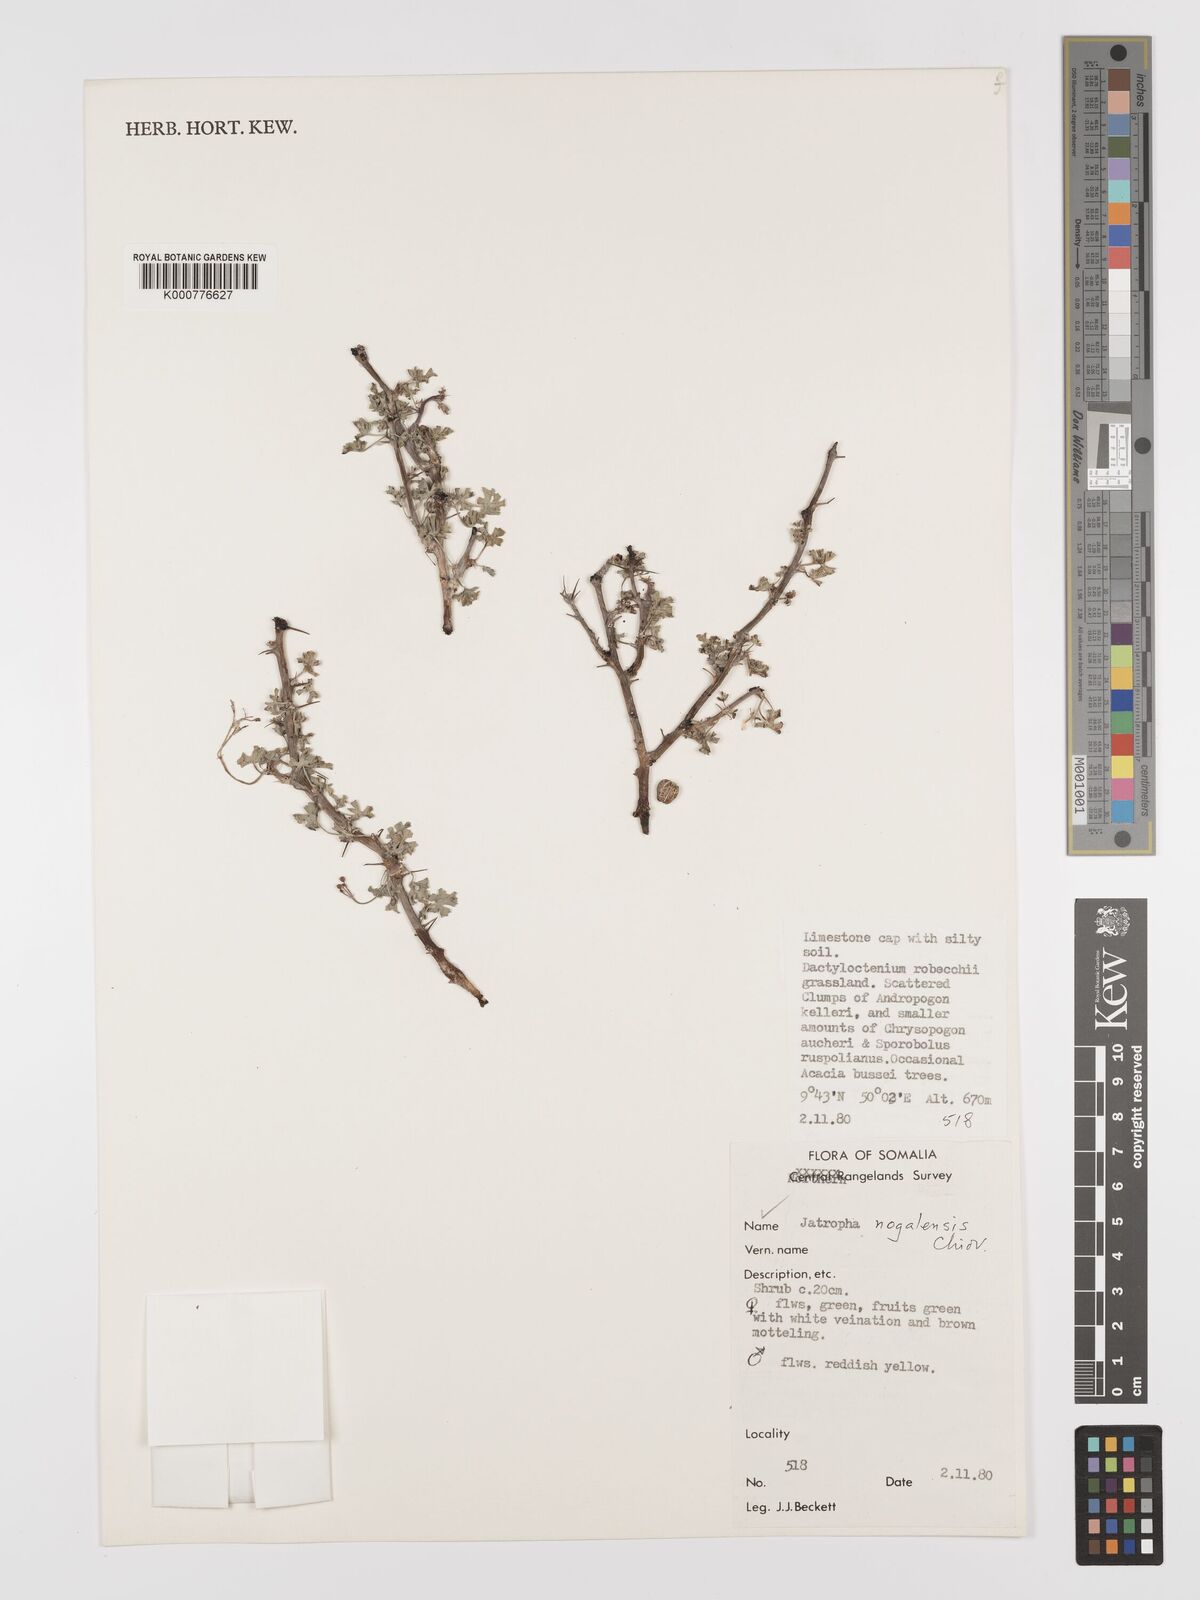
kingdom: Plantae
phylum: Tracheophyta
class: Magnoliopsida
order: Malpighiales
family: Euphorbiaceae
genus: Jatropha
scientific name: Jatropha nogalensis
